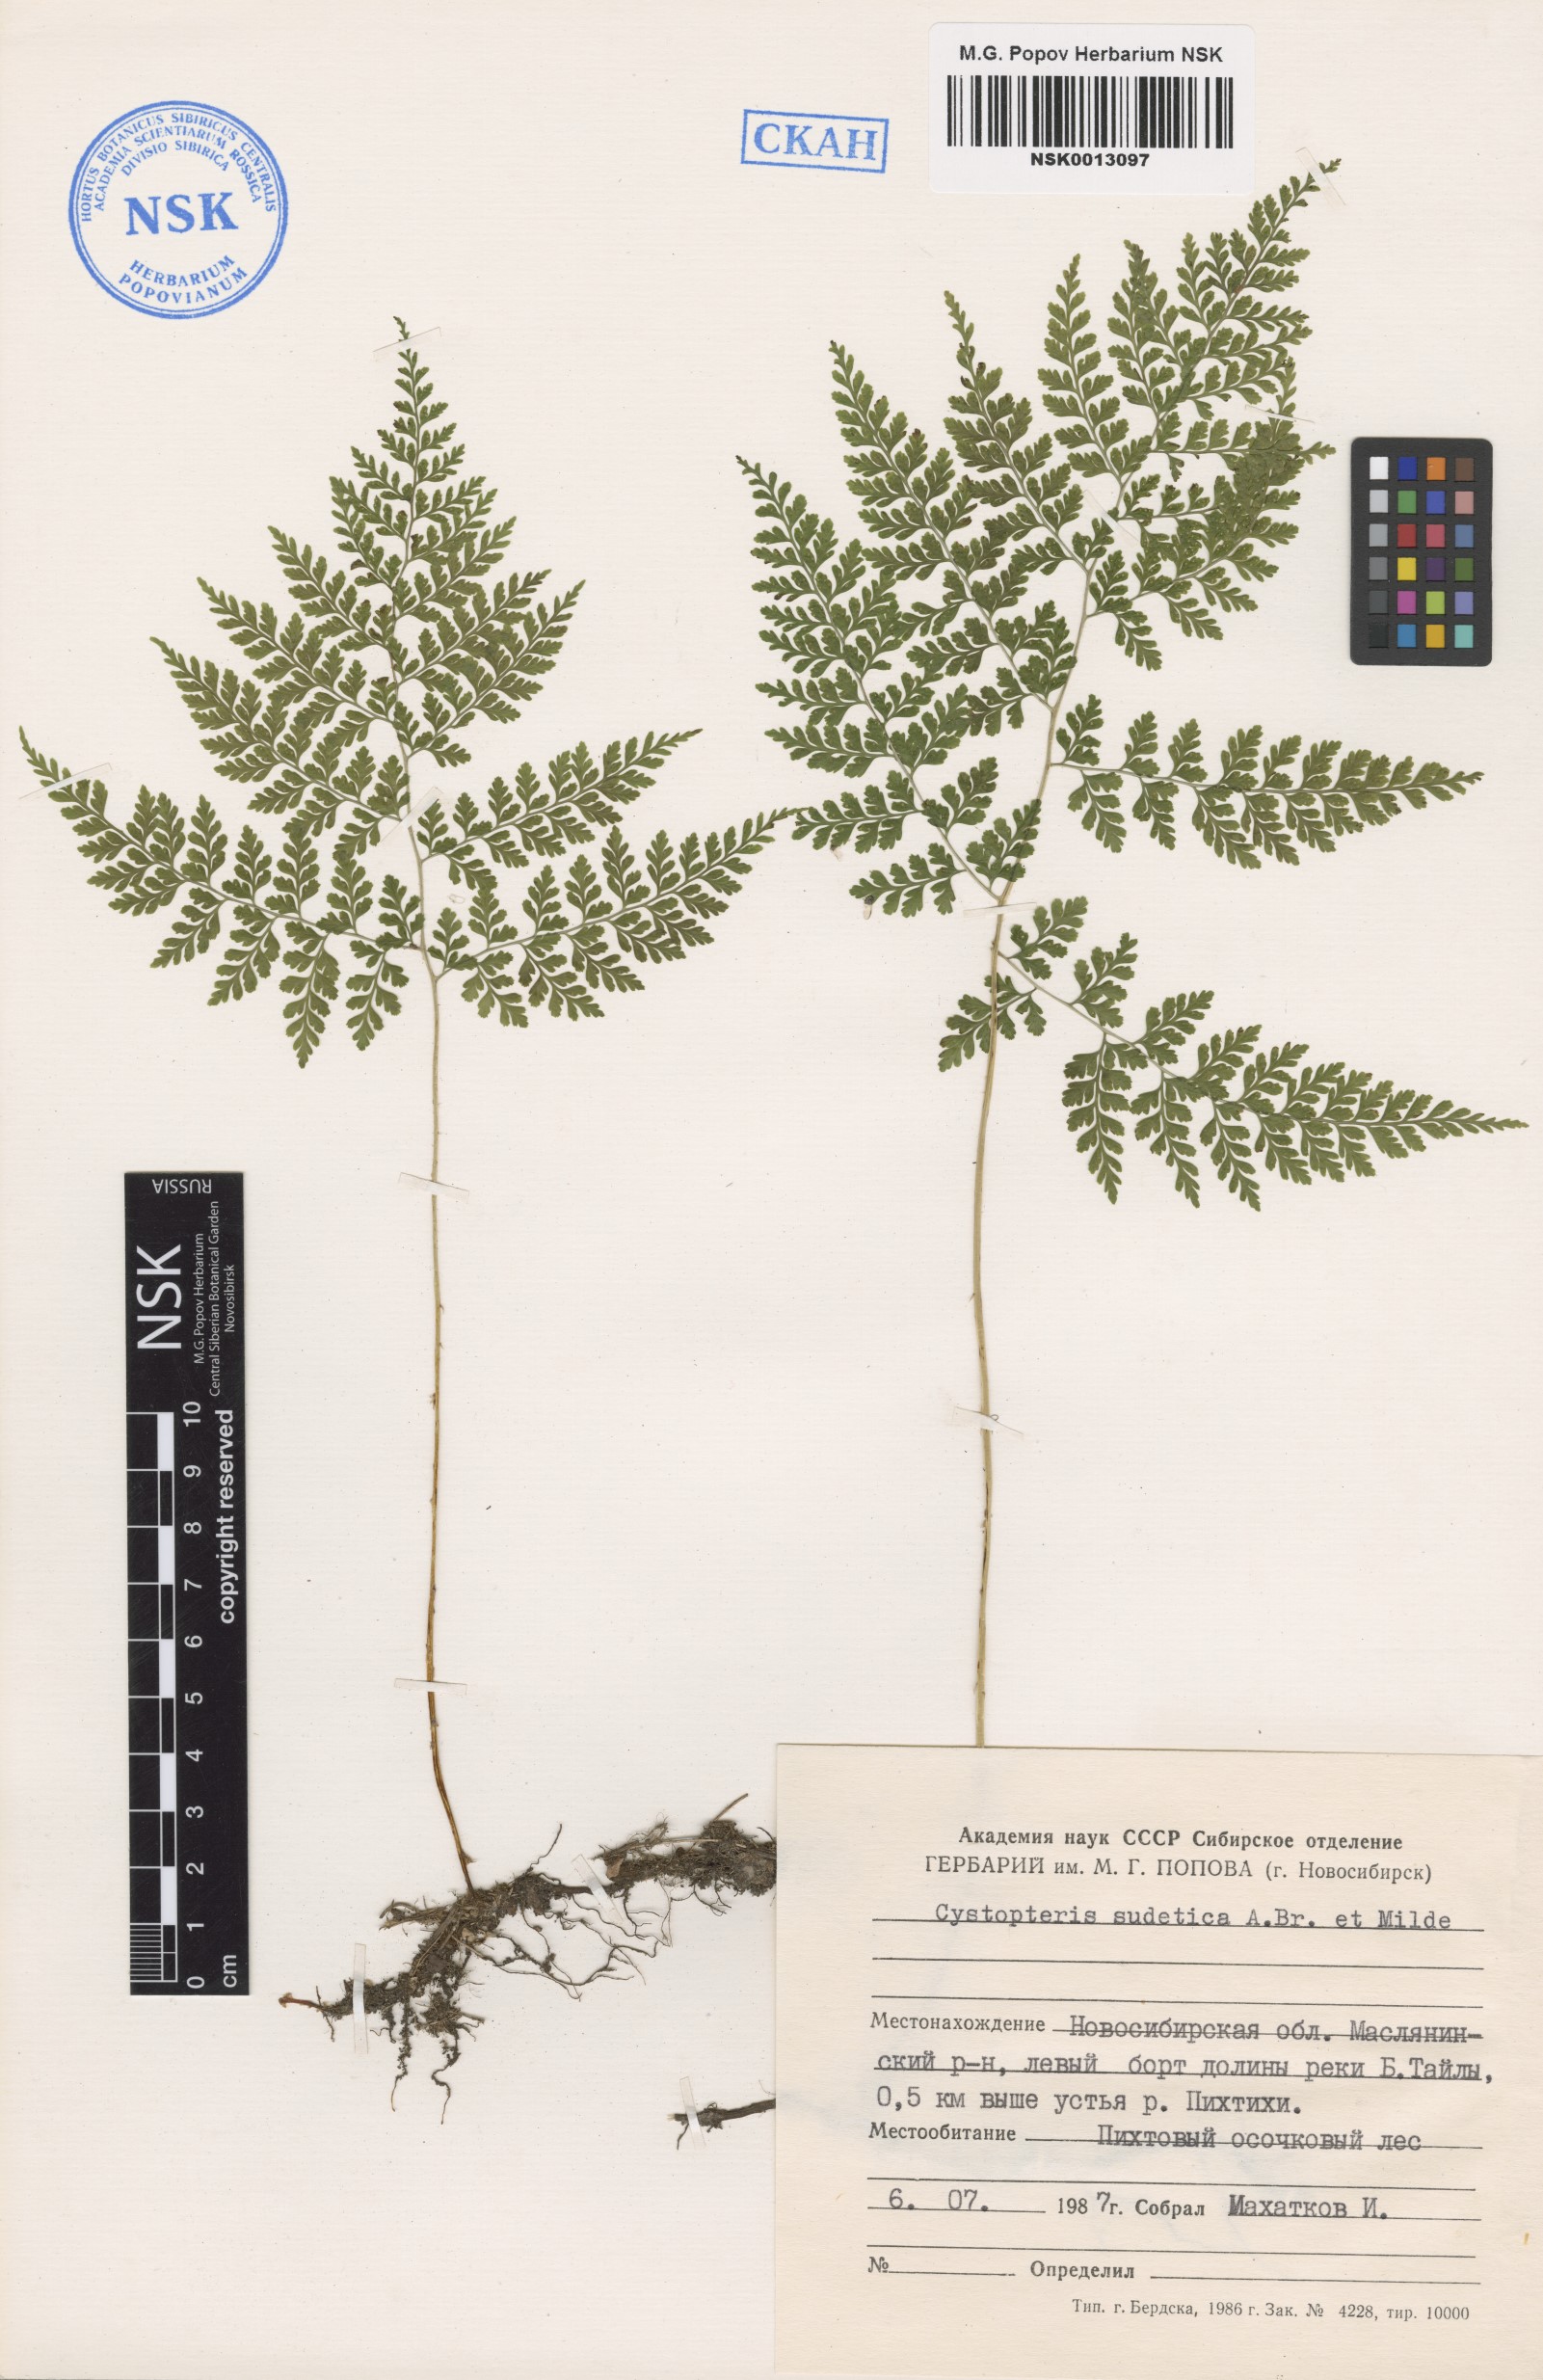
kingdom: Plantae
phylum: Tracheophyta
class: Polypodiopsida
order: Polypodiales
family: Cystopteridaceae
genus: Cystopteris
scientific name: Cystopteris sudetica
